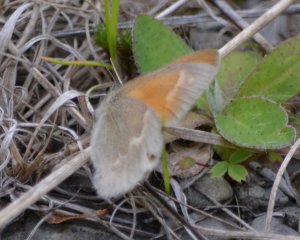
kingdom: Animalia
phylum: Arthropoda
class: Insecta
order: Lepidoptera
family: Nymphalidae
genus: Coenonympha
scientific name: Coenonympha tullia
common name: Large Heath
